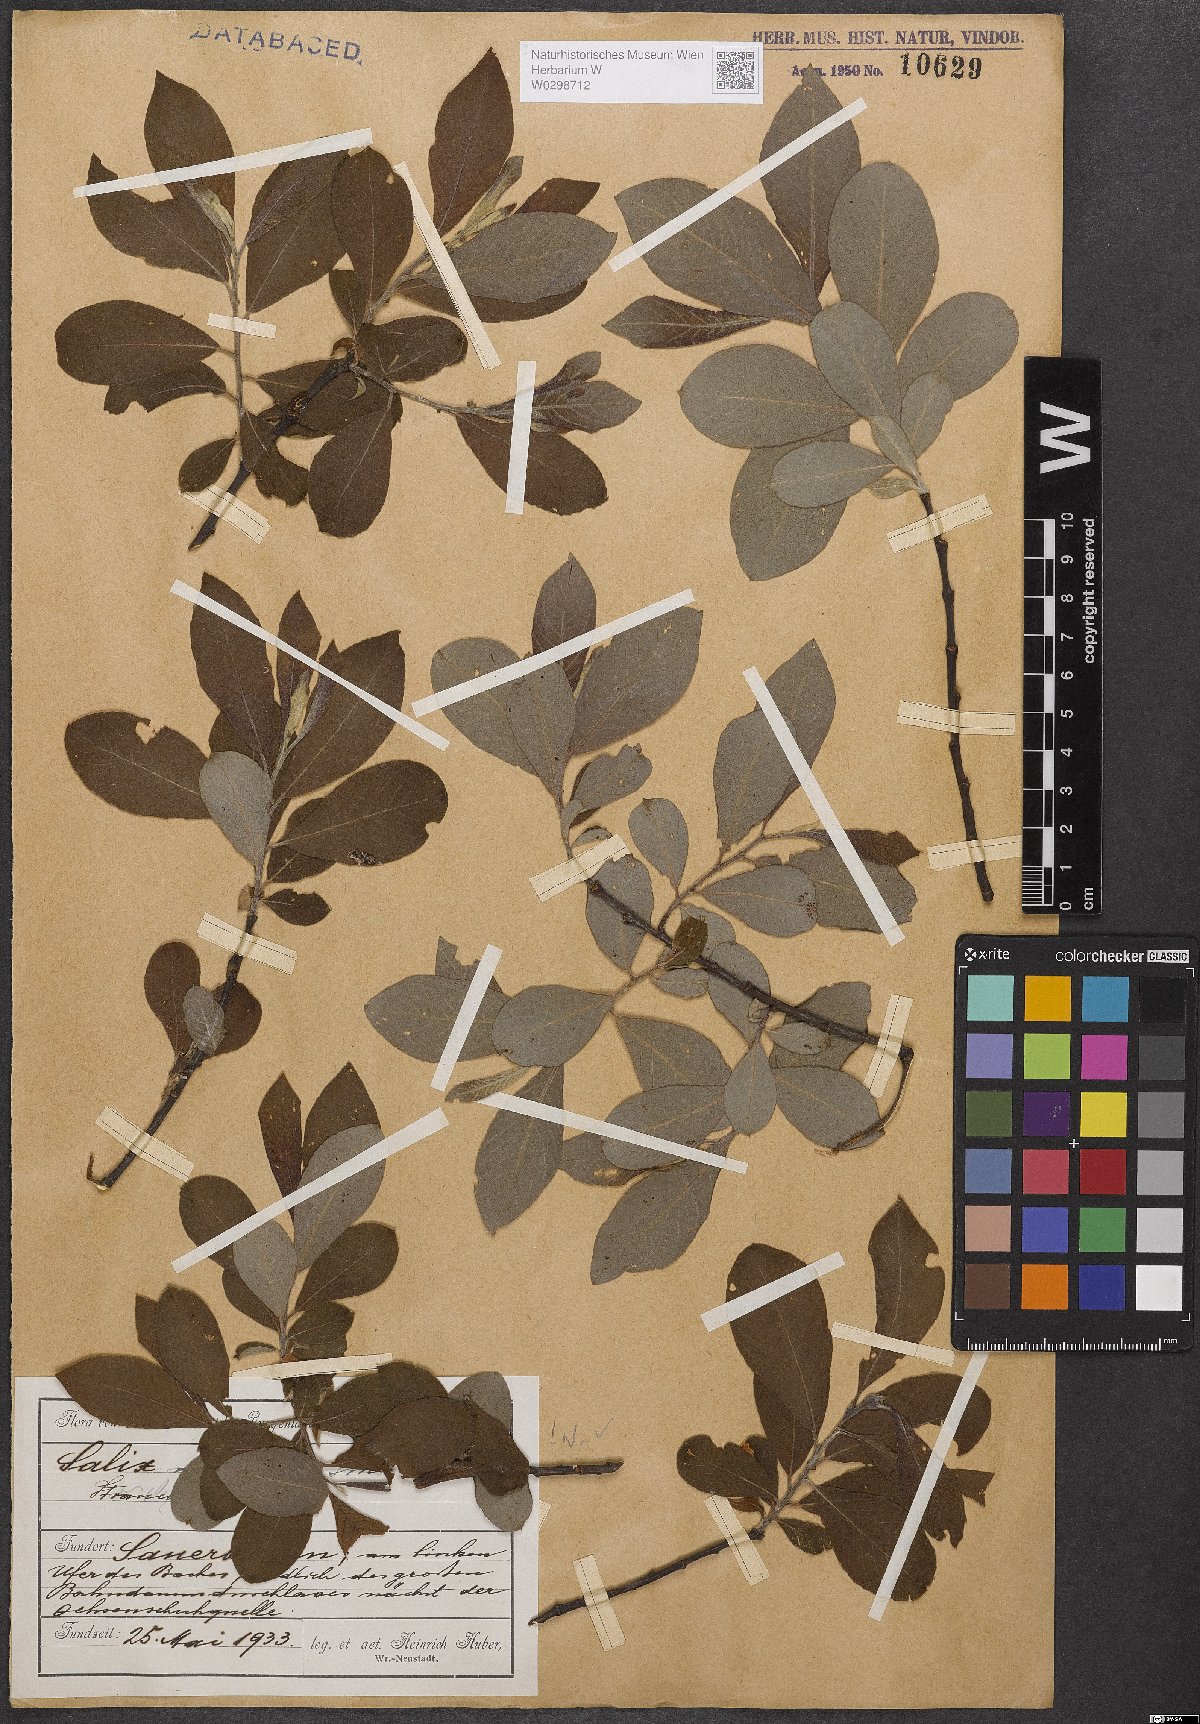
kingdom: Plantae
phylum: Tracheophyta
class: Magnoliopsida
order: Malpighiales
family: Salicaceae
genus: Salix
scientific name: Salix cinerea
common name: Common sallow
